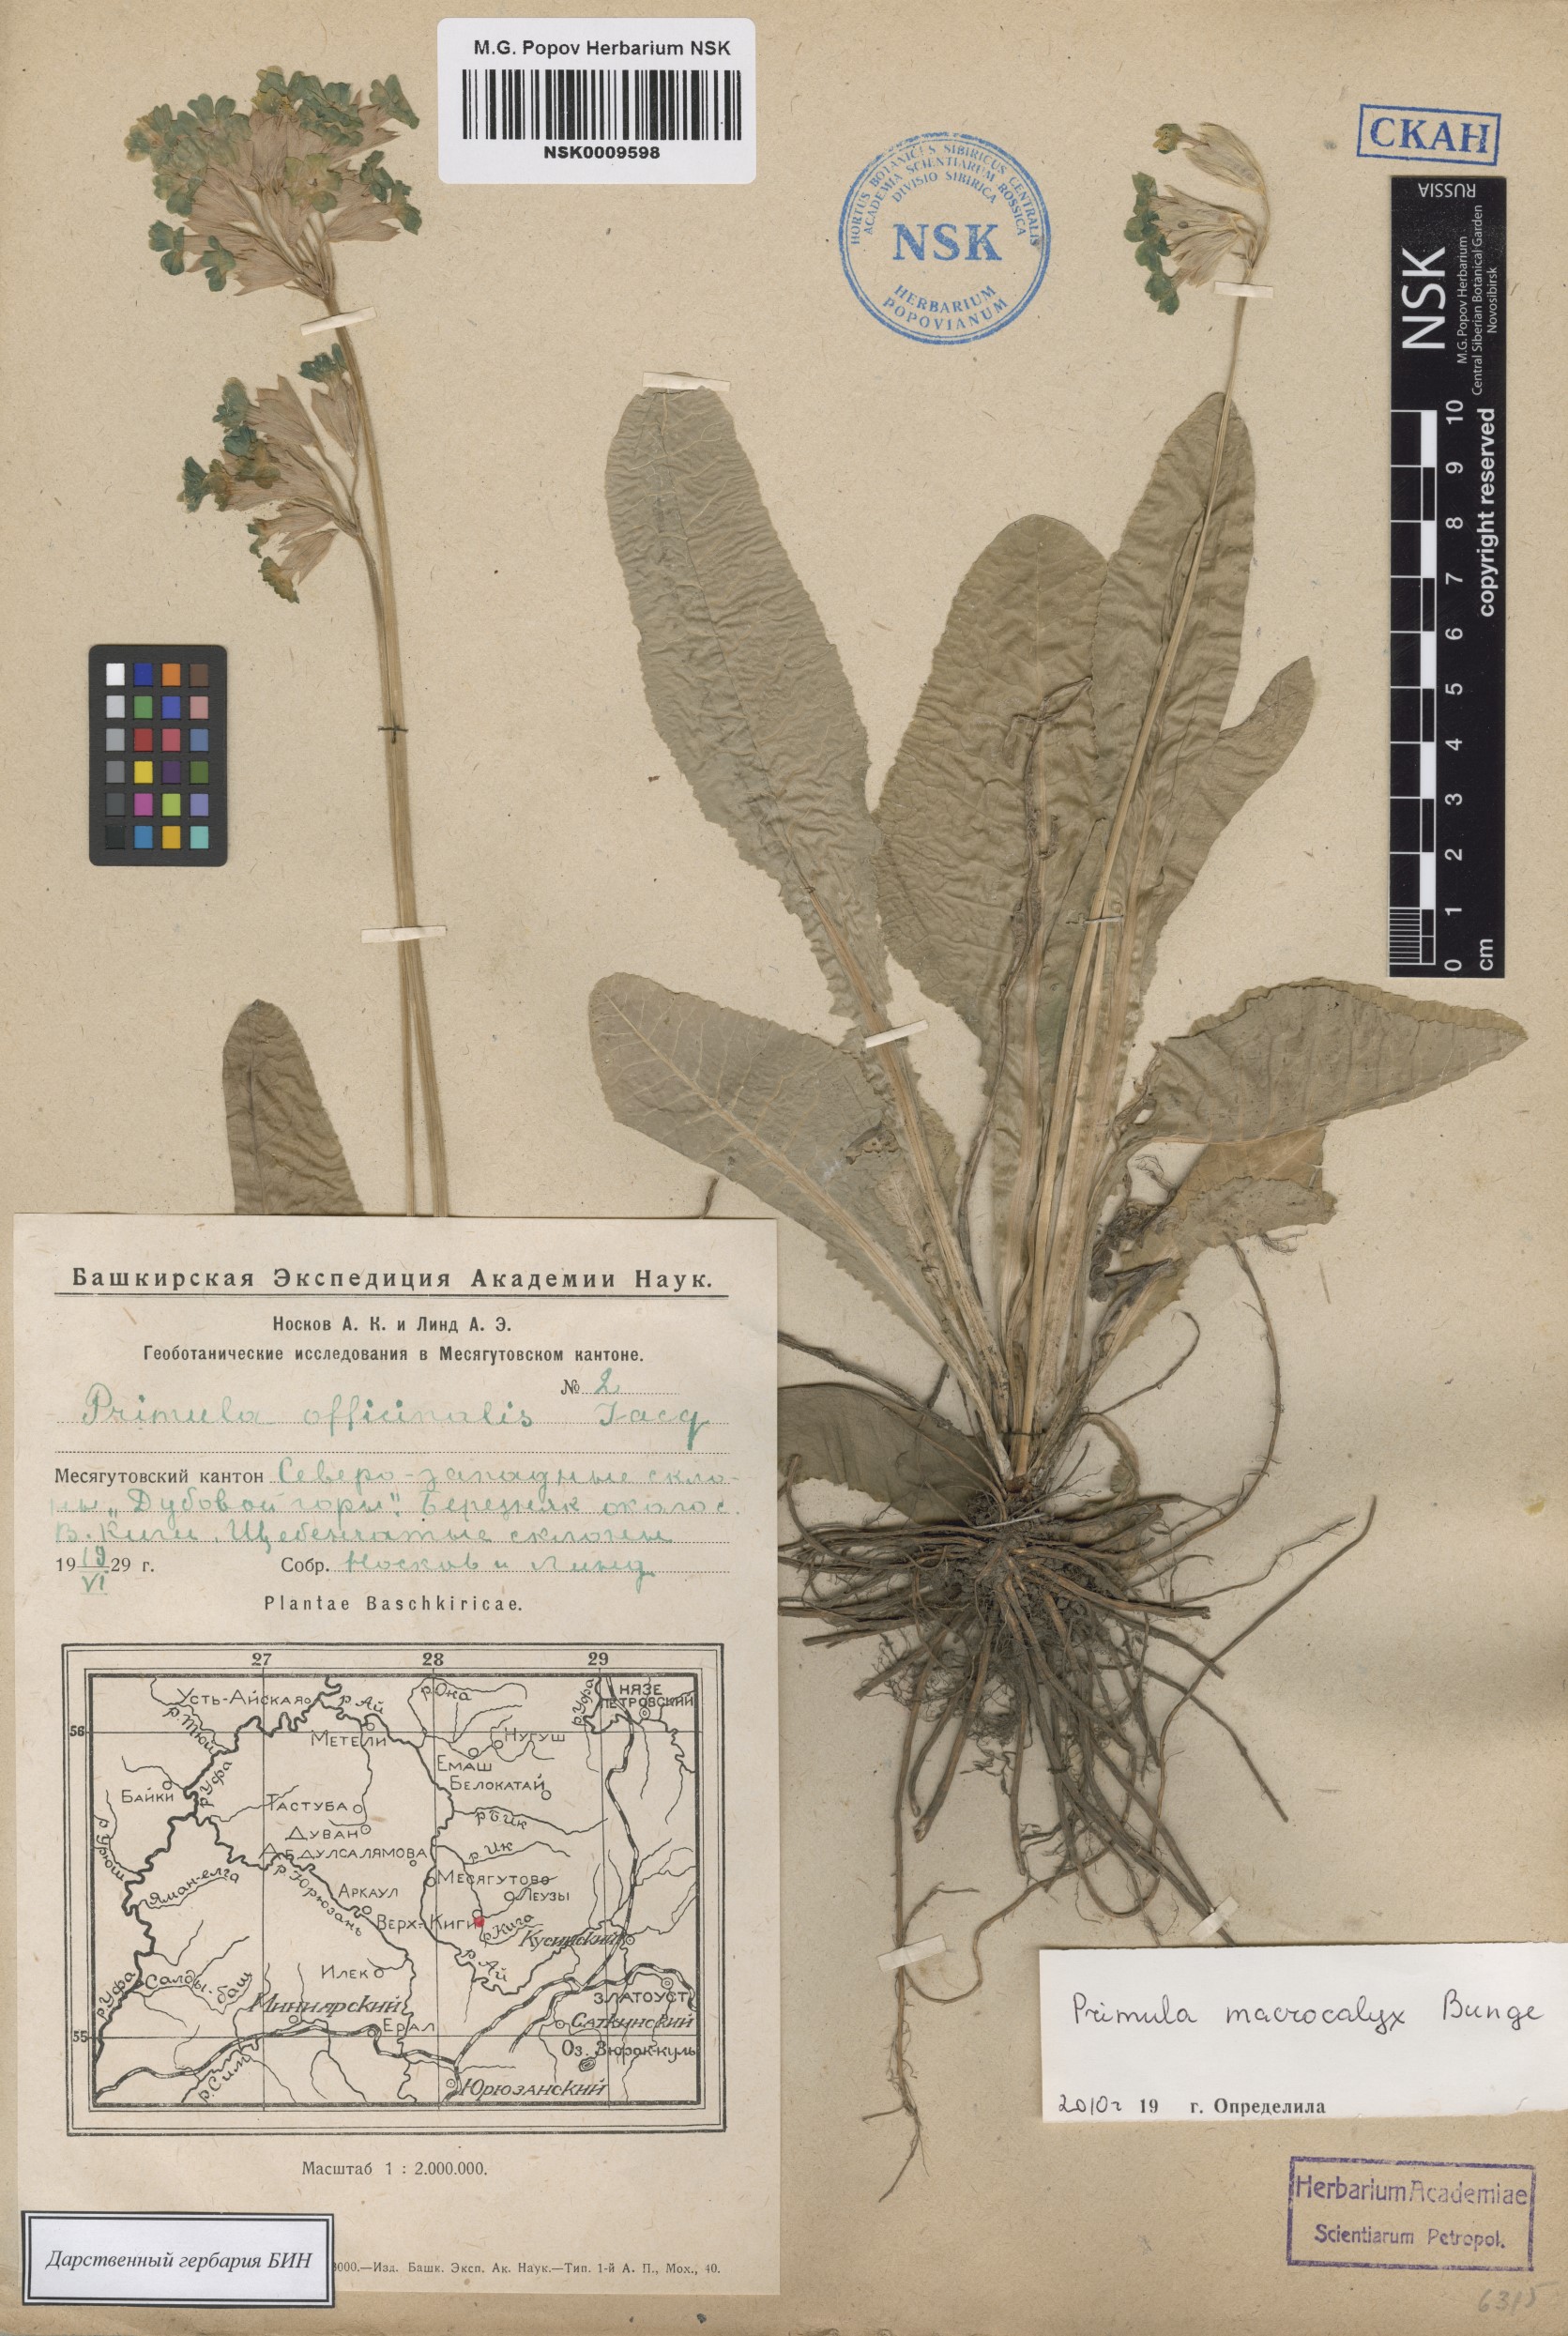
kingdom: Plantae
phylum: Tracheophyta
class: Magnoliopsida
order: Ericales
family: Primulaceae
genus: Primula
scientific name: Primula veris
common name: Cowslip
